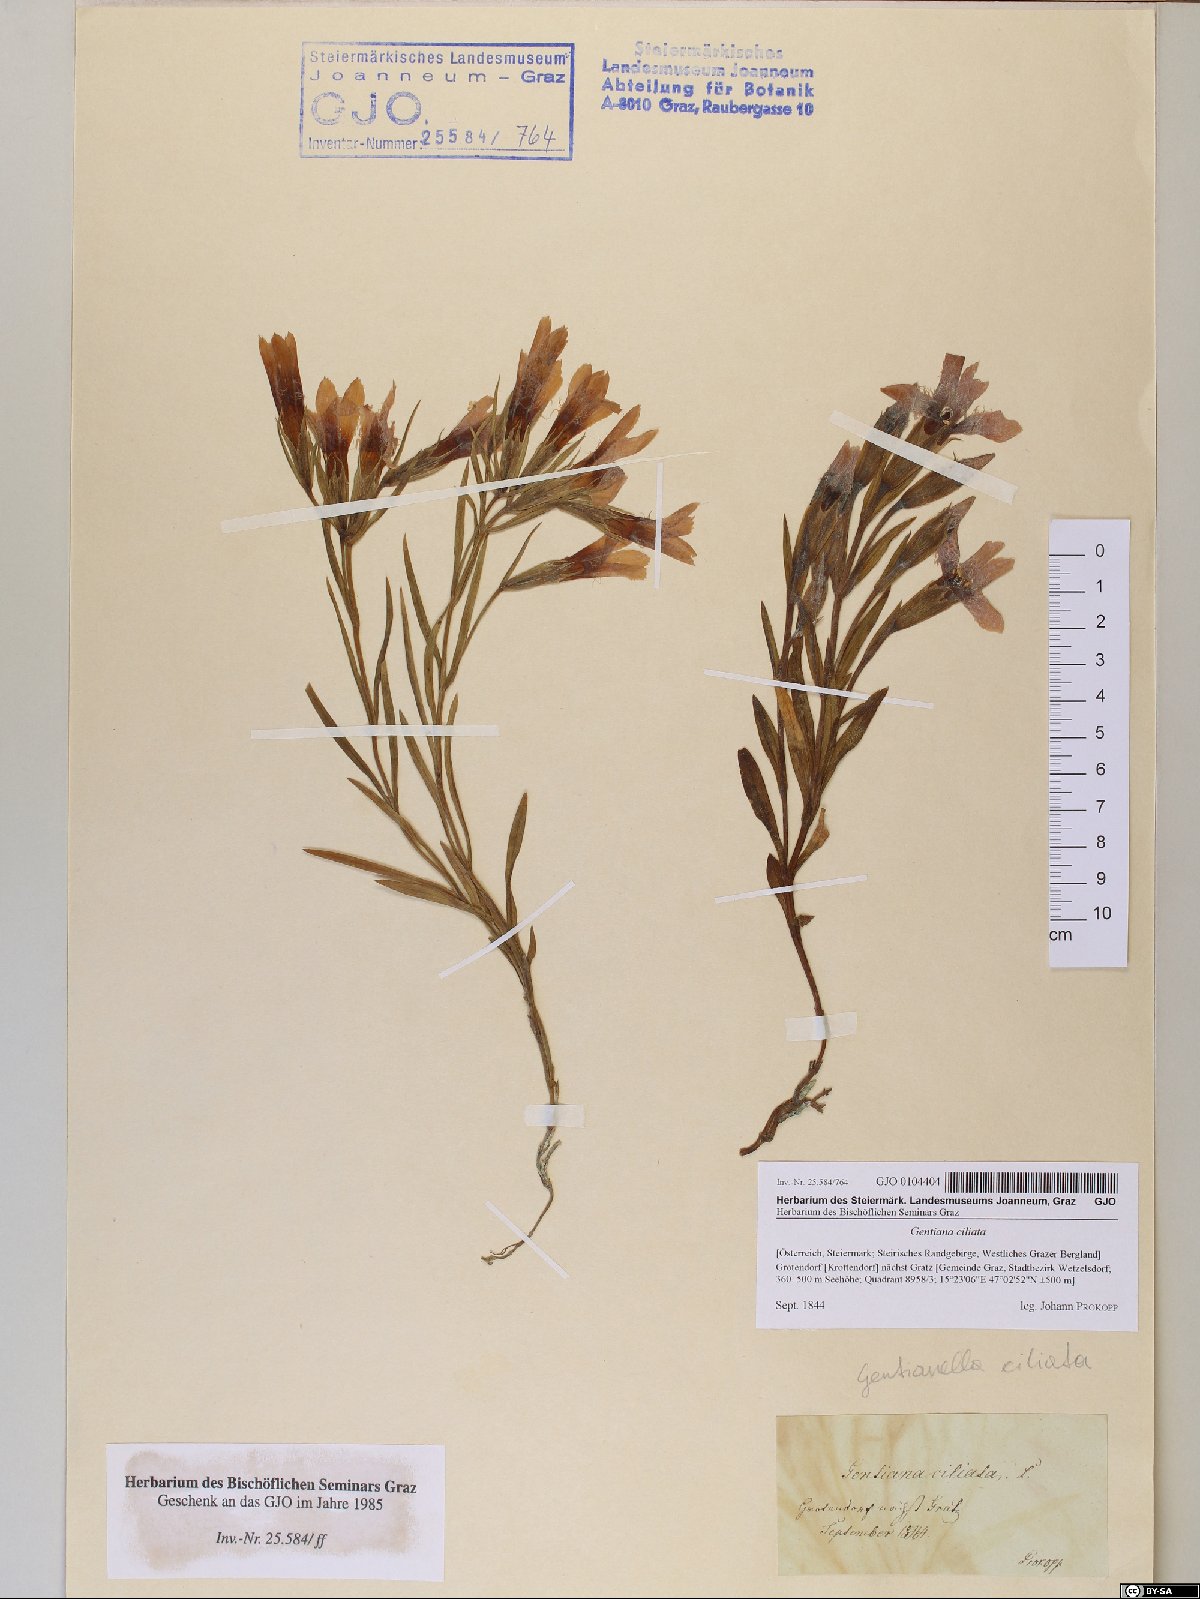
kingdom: Plantae
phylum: Tracheophyta
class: Magnoliopsida
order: Gentianales
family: Gentianaceae
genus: Gentianopsis
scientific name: Gentianopsis ciliata
